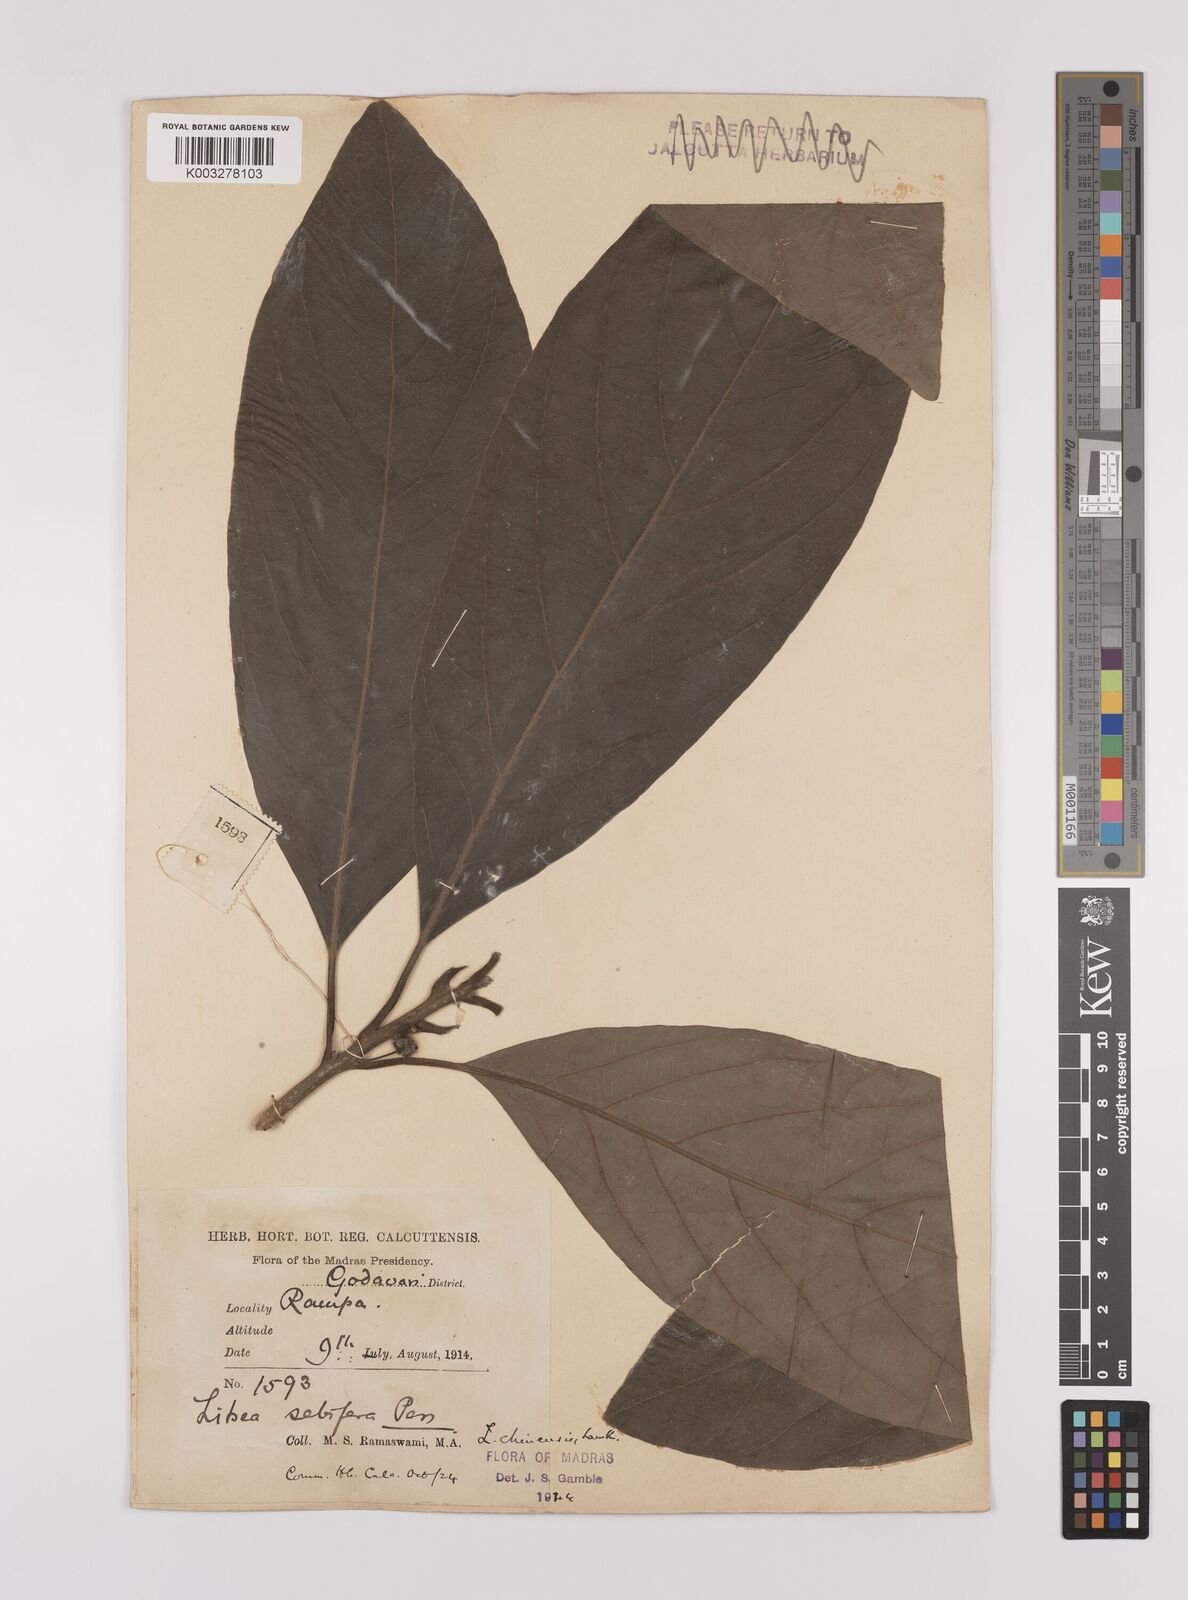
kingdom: Plantae
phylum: Tracheophyta
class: Magnoliopsida
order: Laurales
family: Lauraceae
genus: Litsea
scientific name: Litsea
